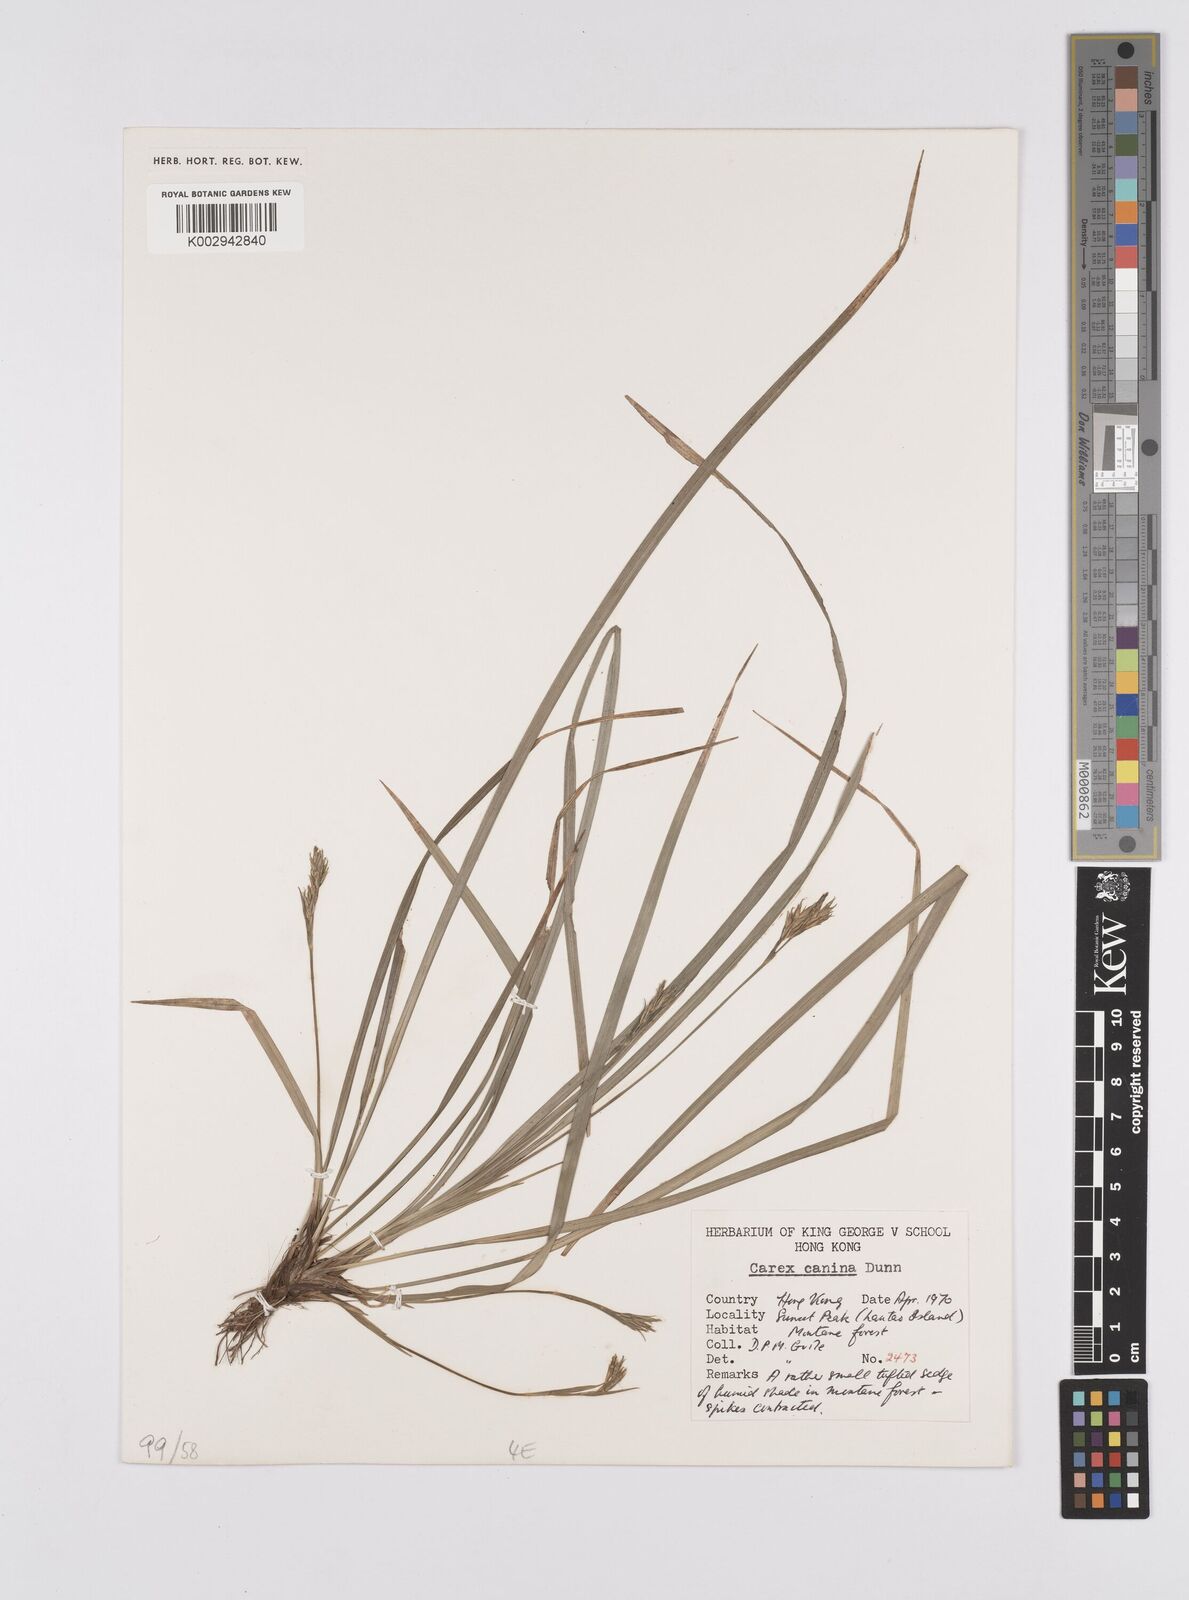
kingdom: Plantae
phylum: Tracheophyta
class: Liliopsida
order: Poales
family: Cyperaceae
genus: Carex
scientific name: Carex canina
